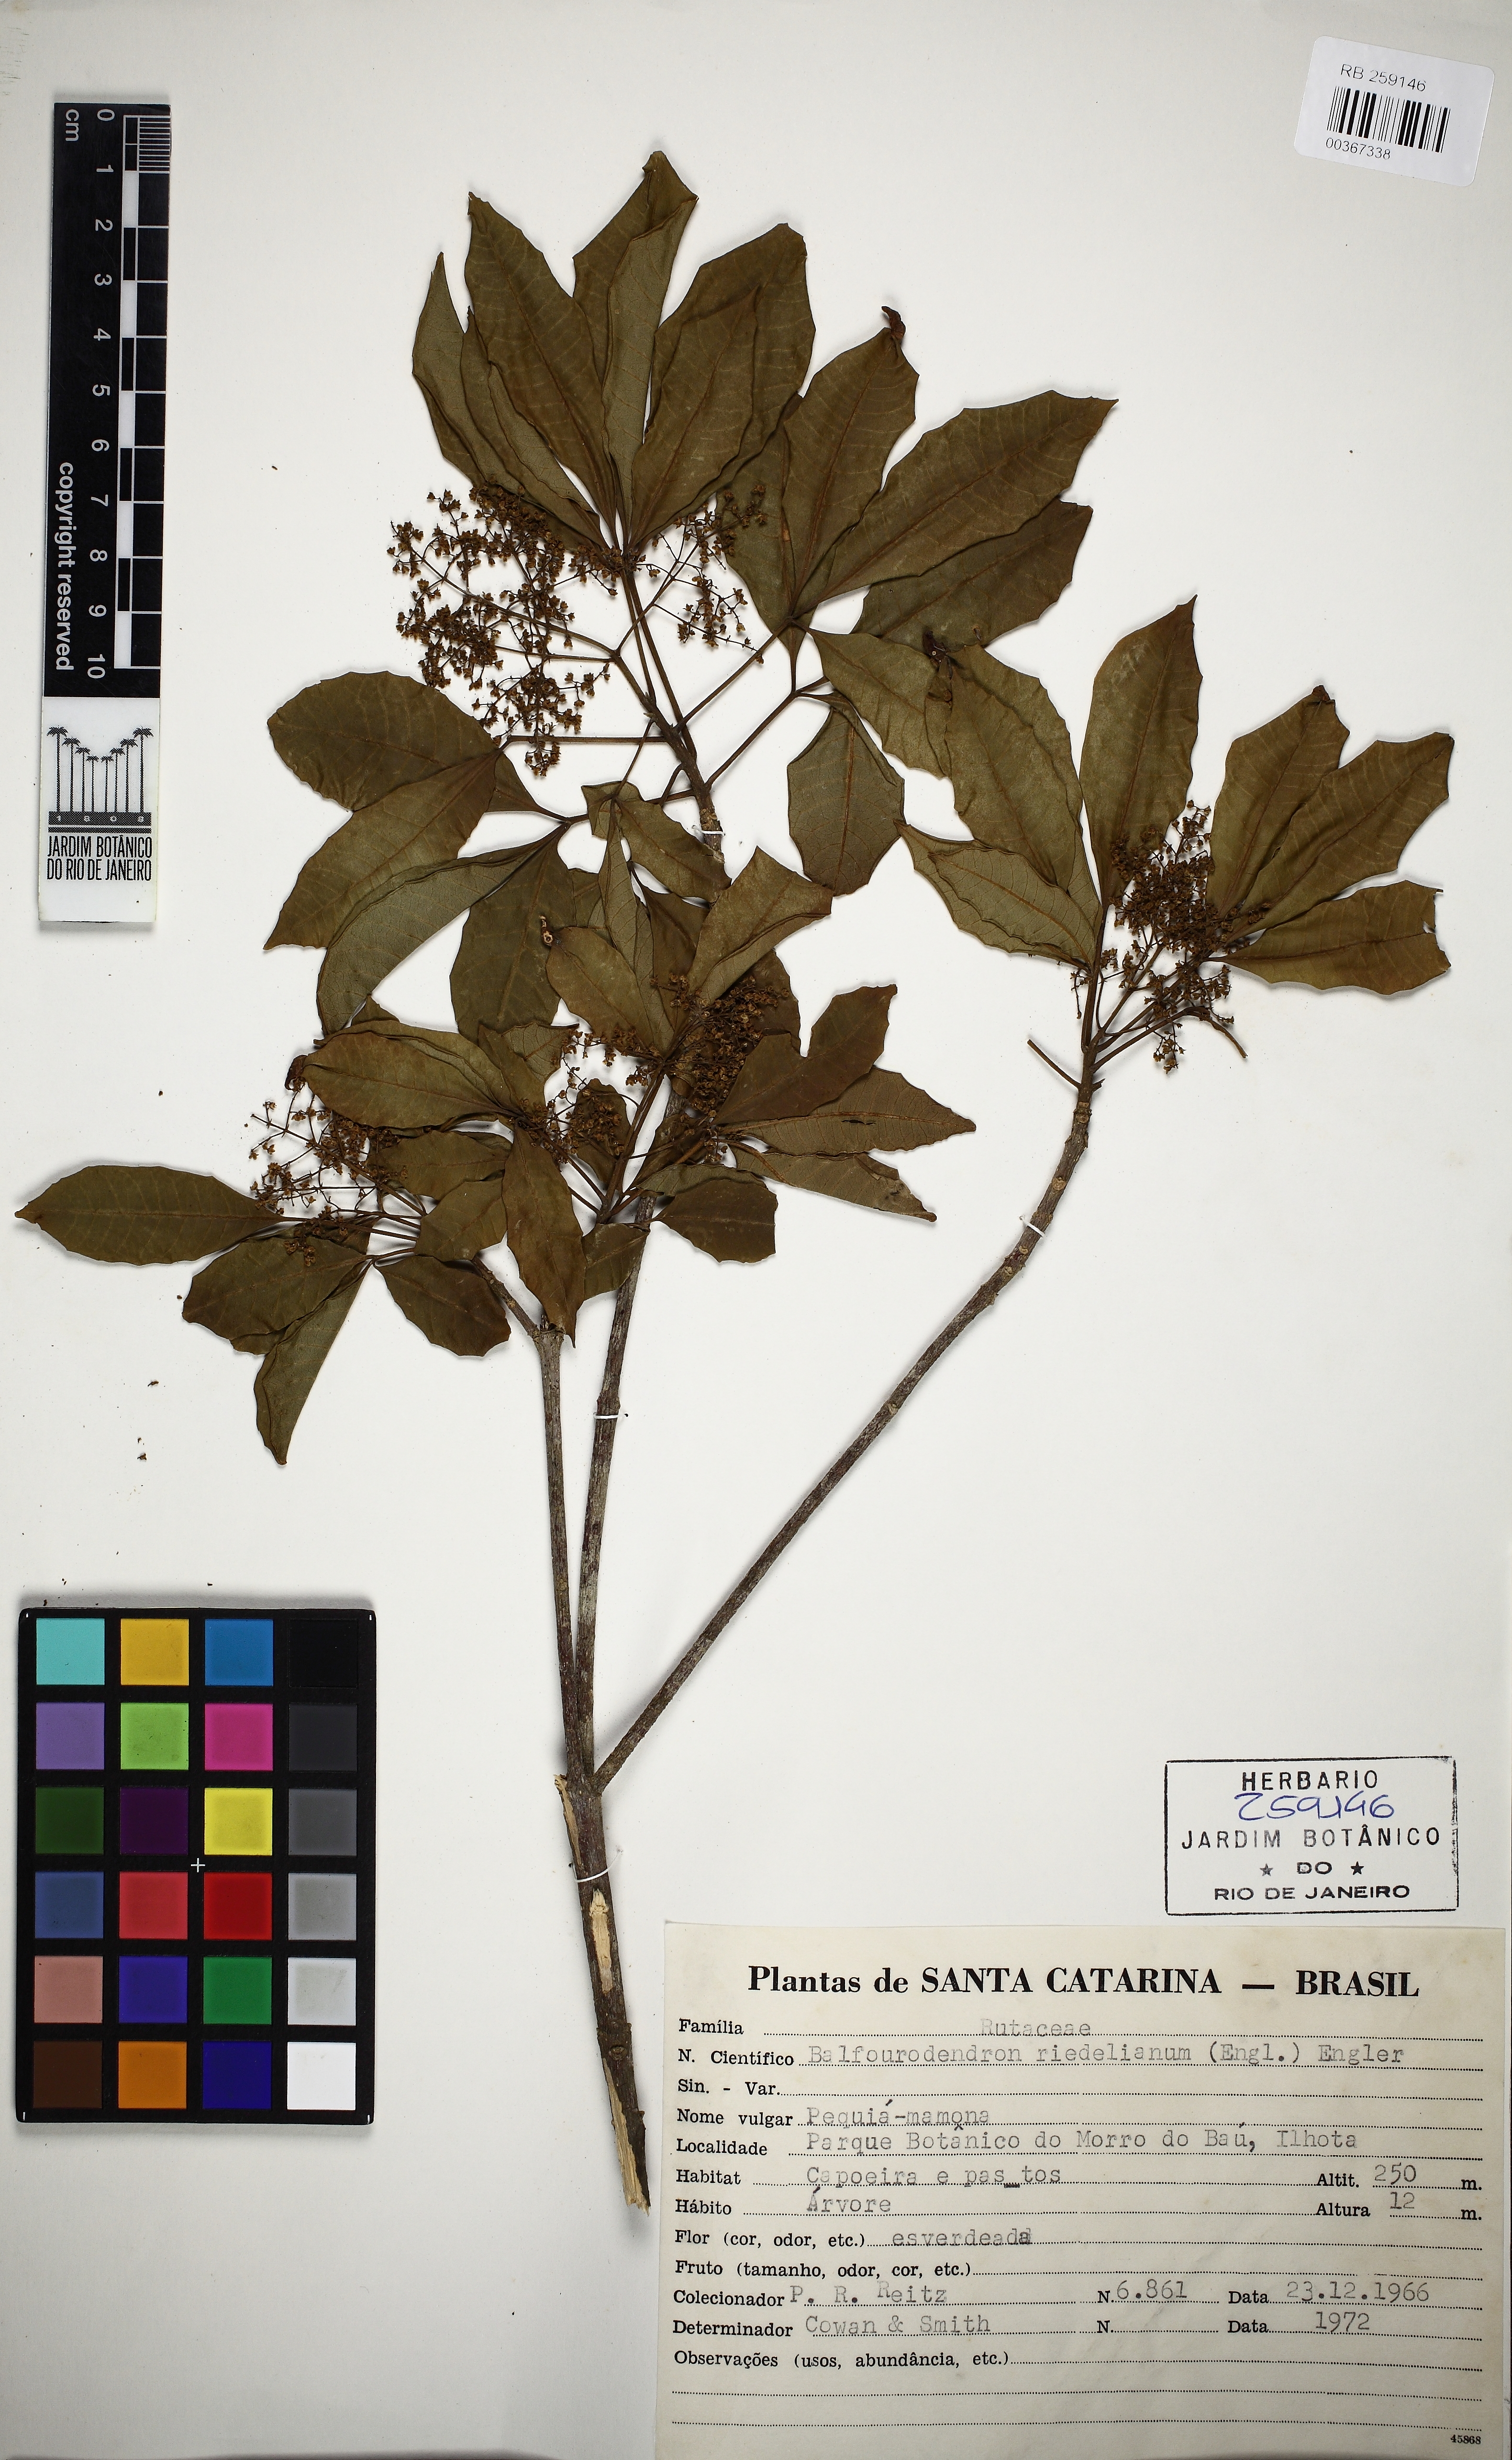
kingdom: Plantae
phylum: Tracheophyta
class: Magnoliopsida
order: Sapindales
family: Rutaceae
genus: Balfourodendron
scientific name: Balfourodendron riedelianum
